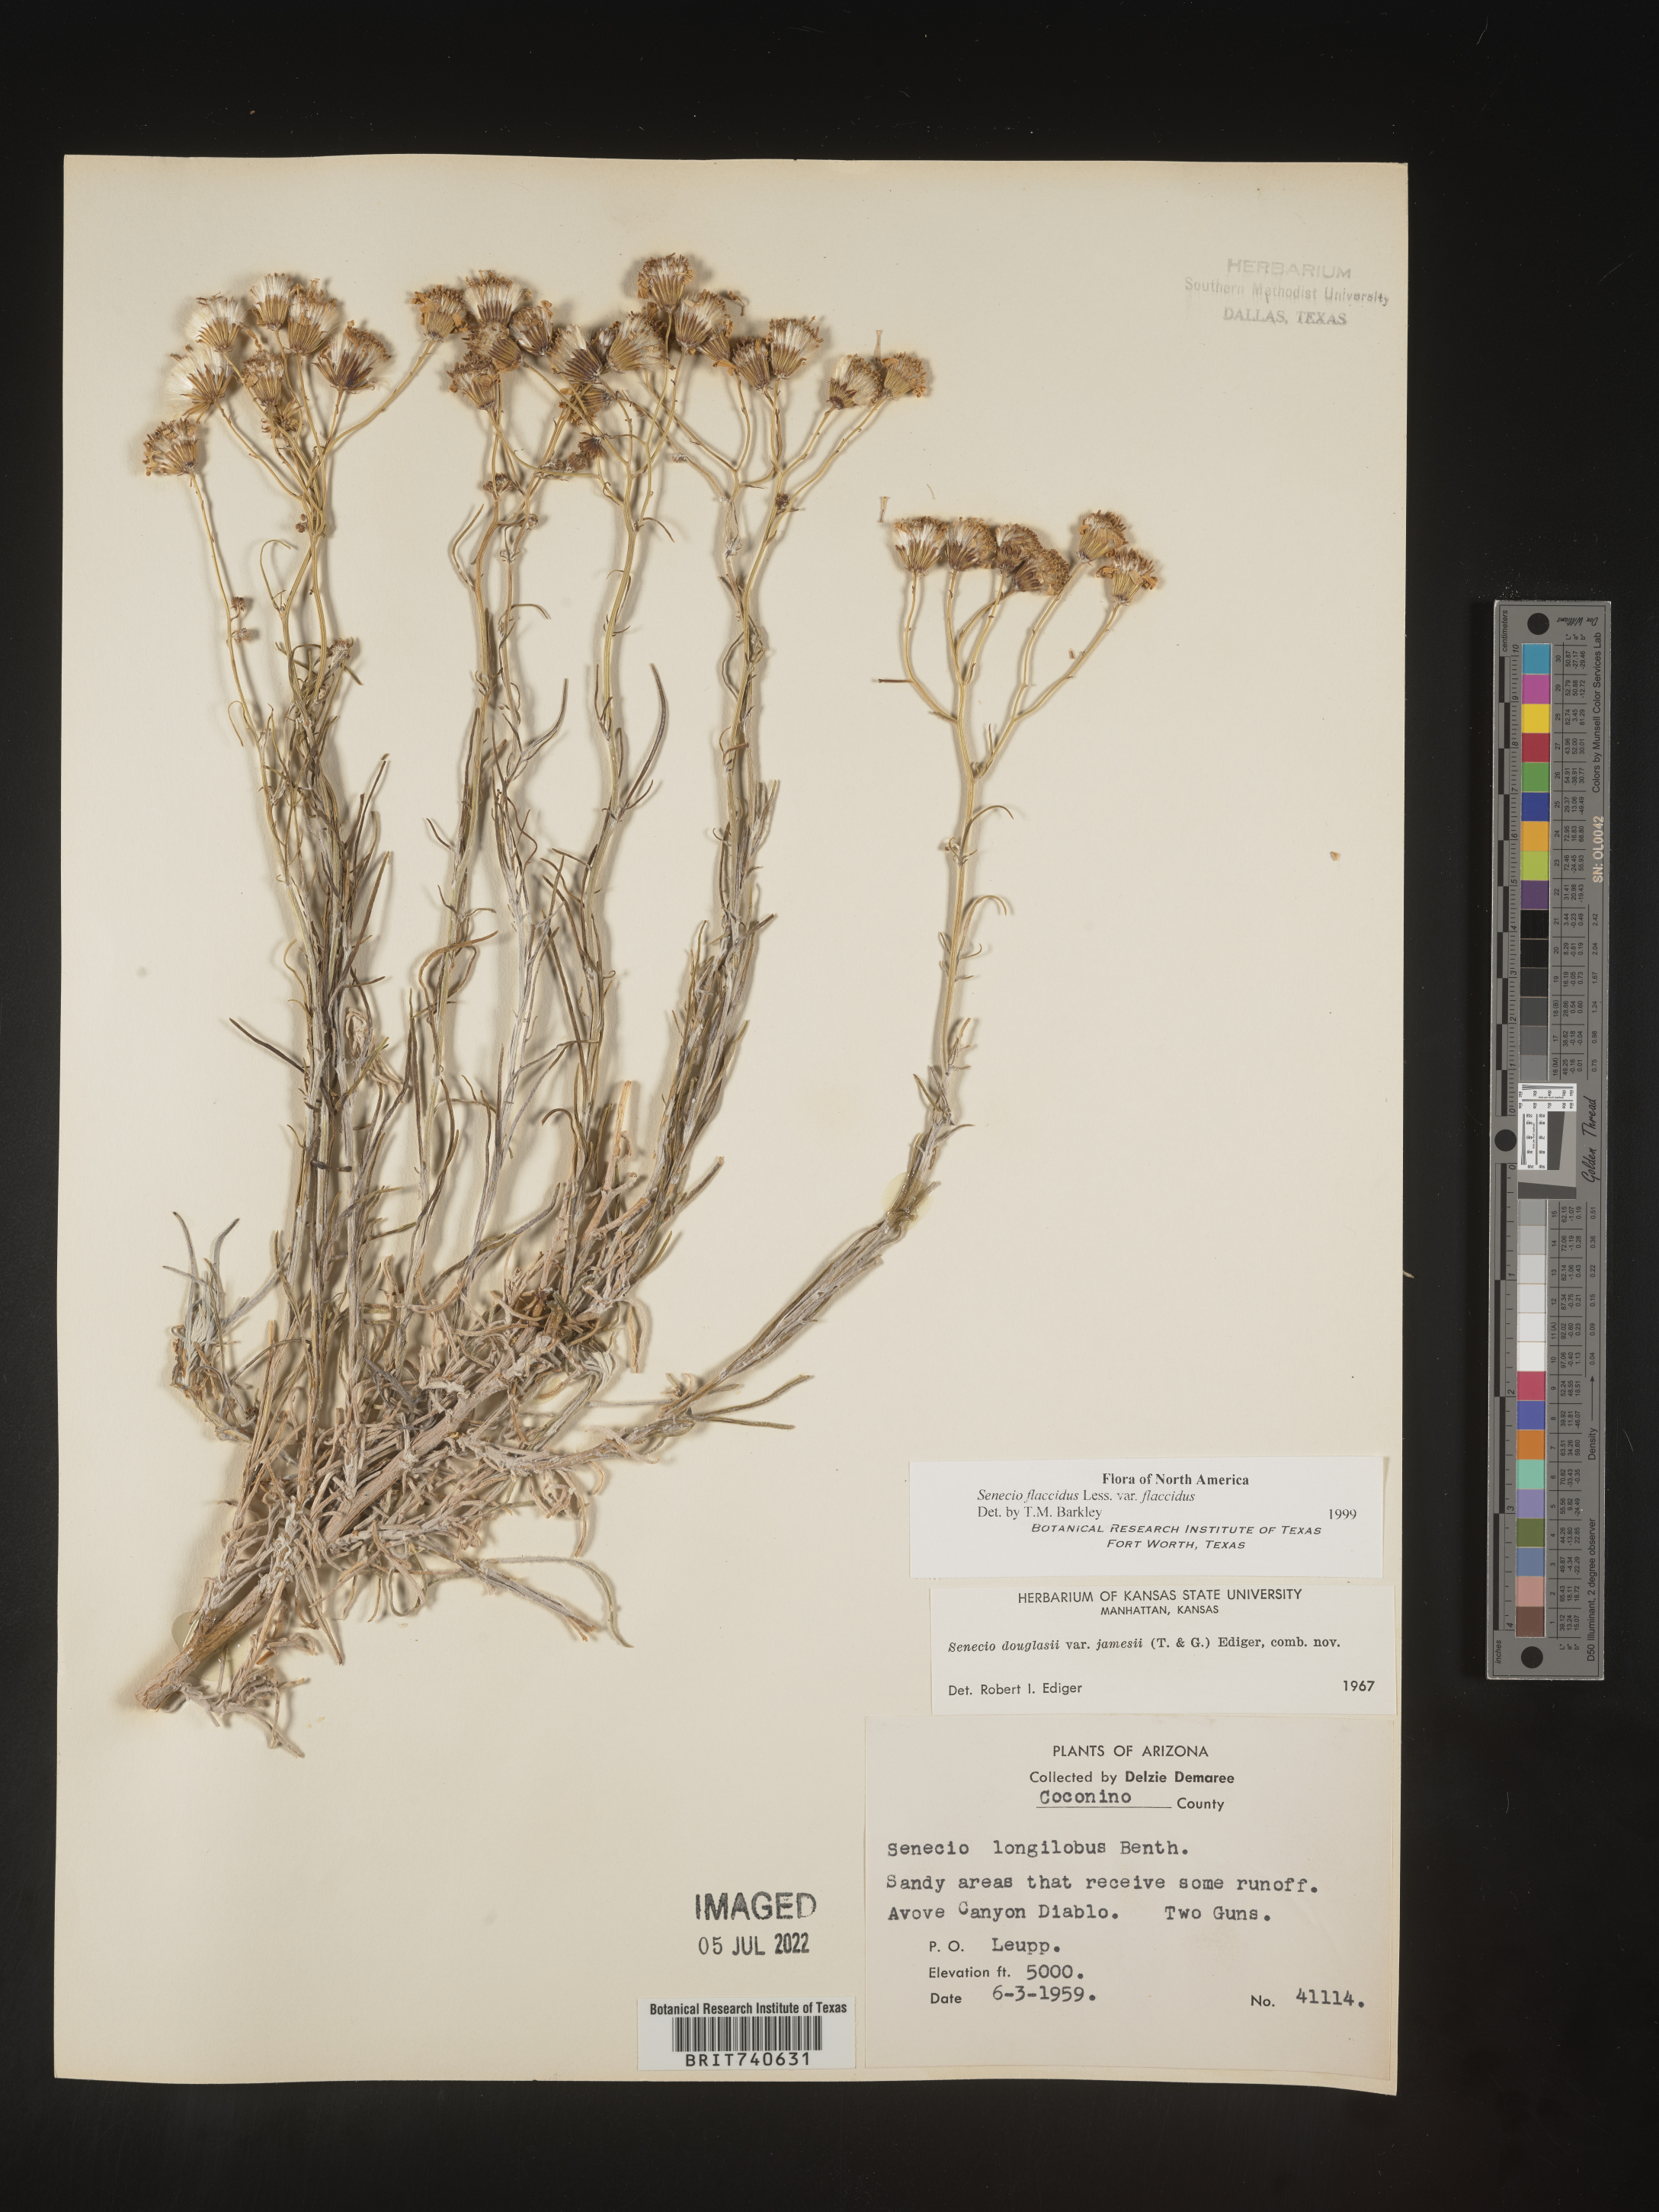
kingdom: Plantae
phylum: Tracheophyta
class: Magnoliopsida
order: Asterales
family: Asteraceae
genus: Senecio
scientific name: Senecio flaccidus
